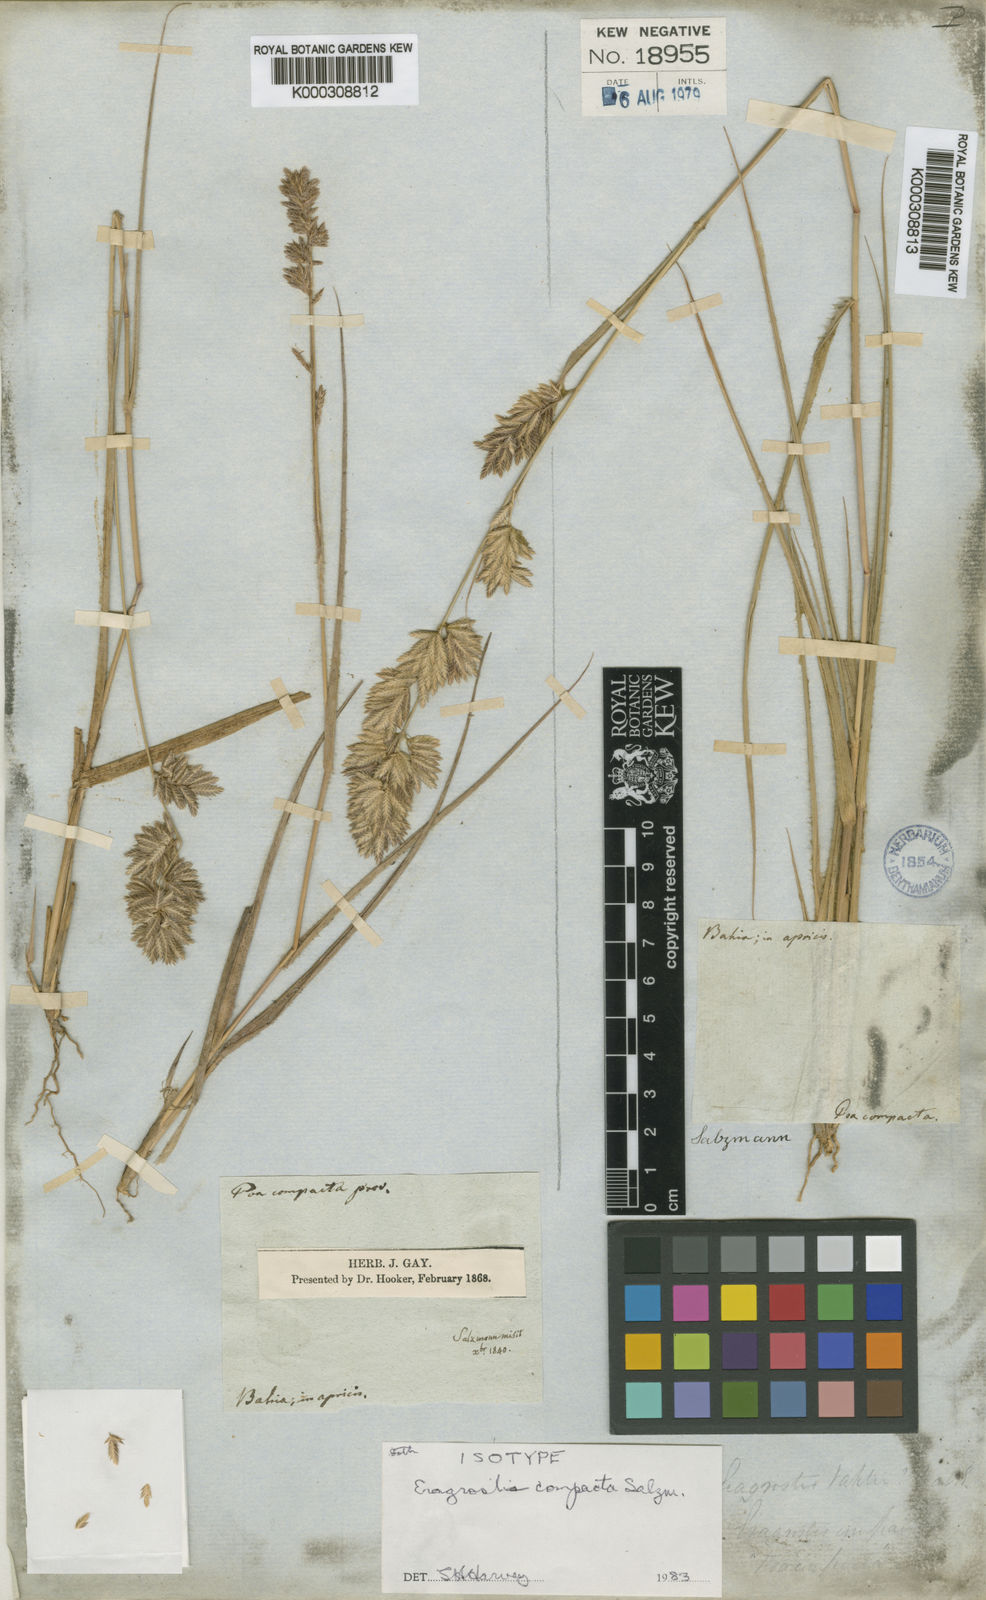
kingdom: Plantae
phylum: Tracheophyta
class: Liliopsida
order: Poales
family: Poaceae
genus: Eragrostis
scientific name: Eragrostis secundiflora
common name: Red love grass
